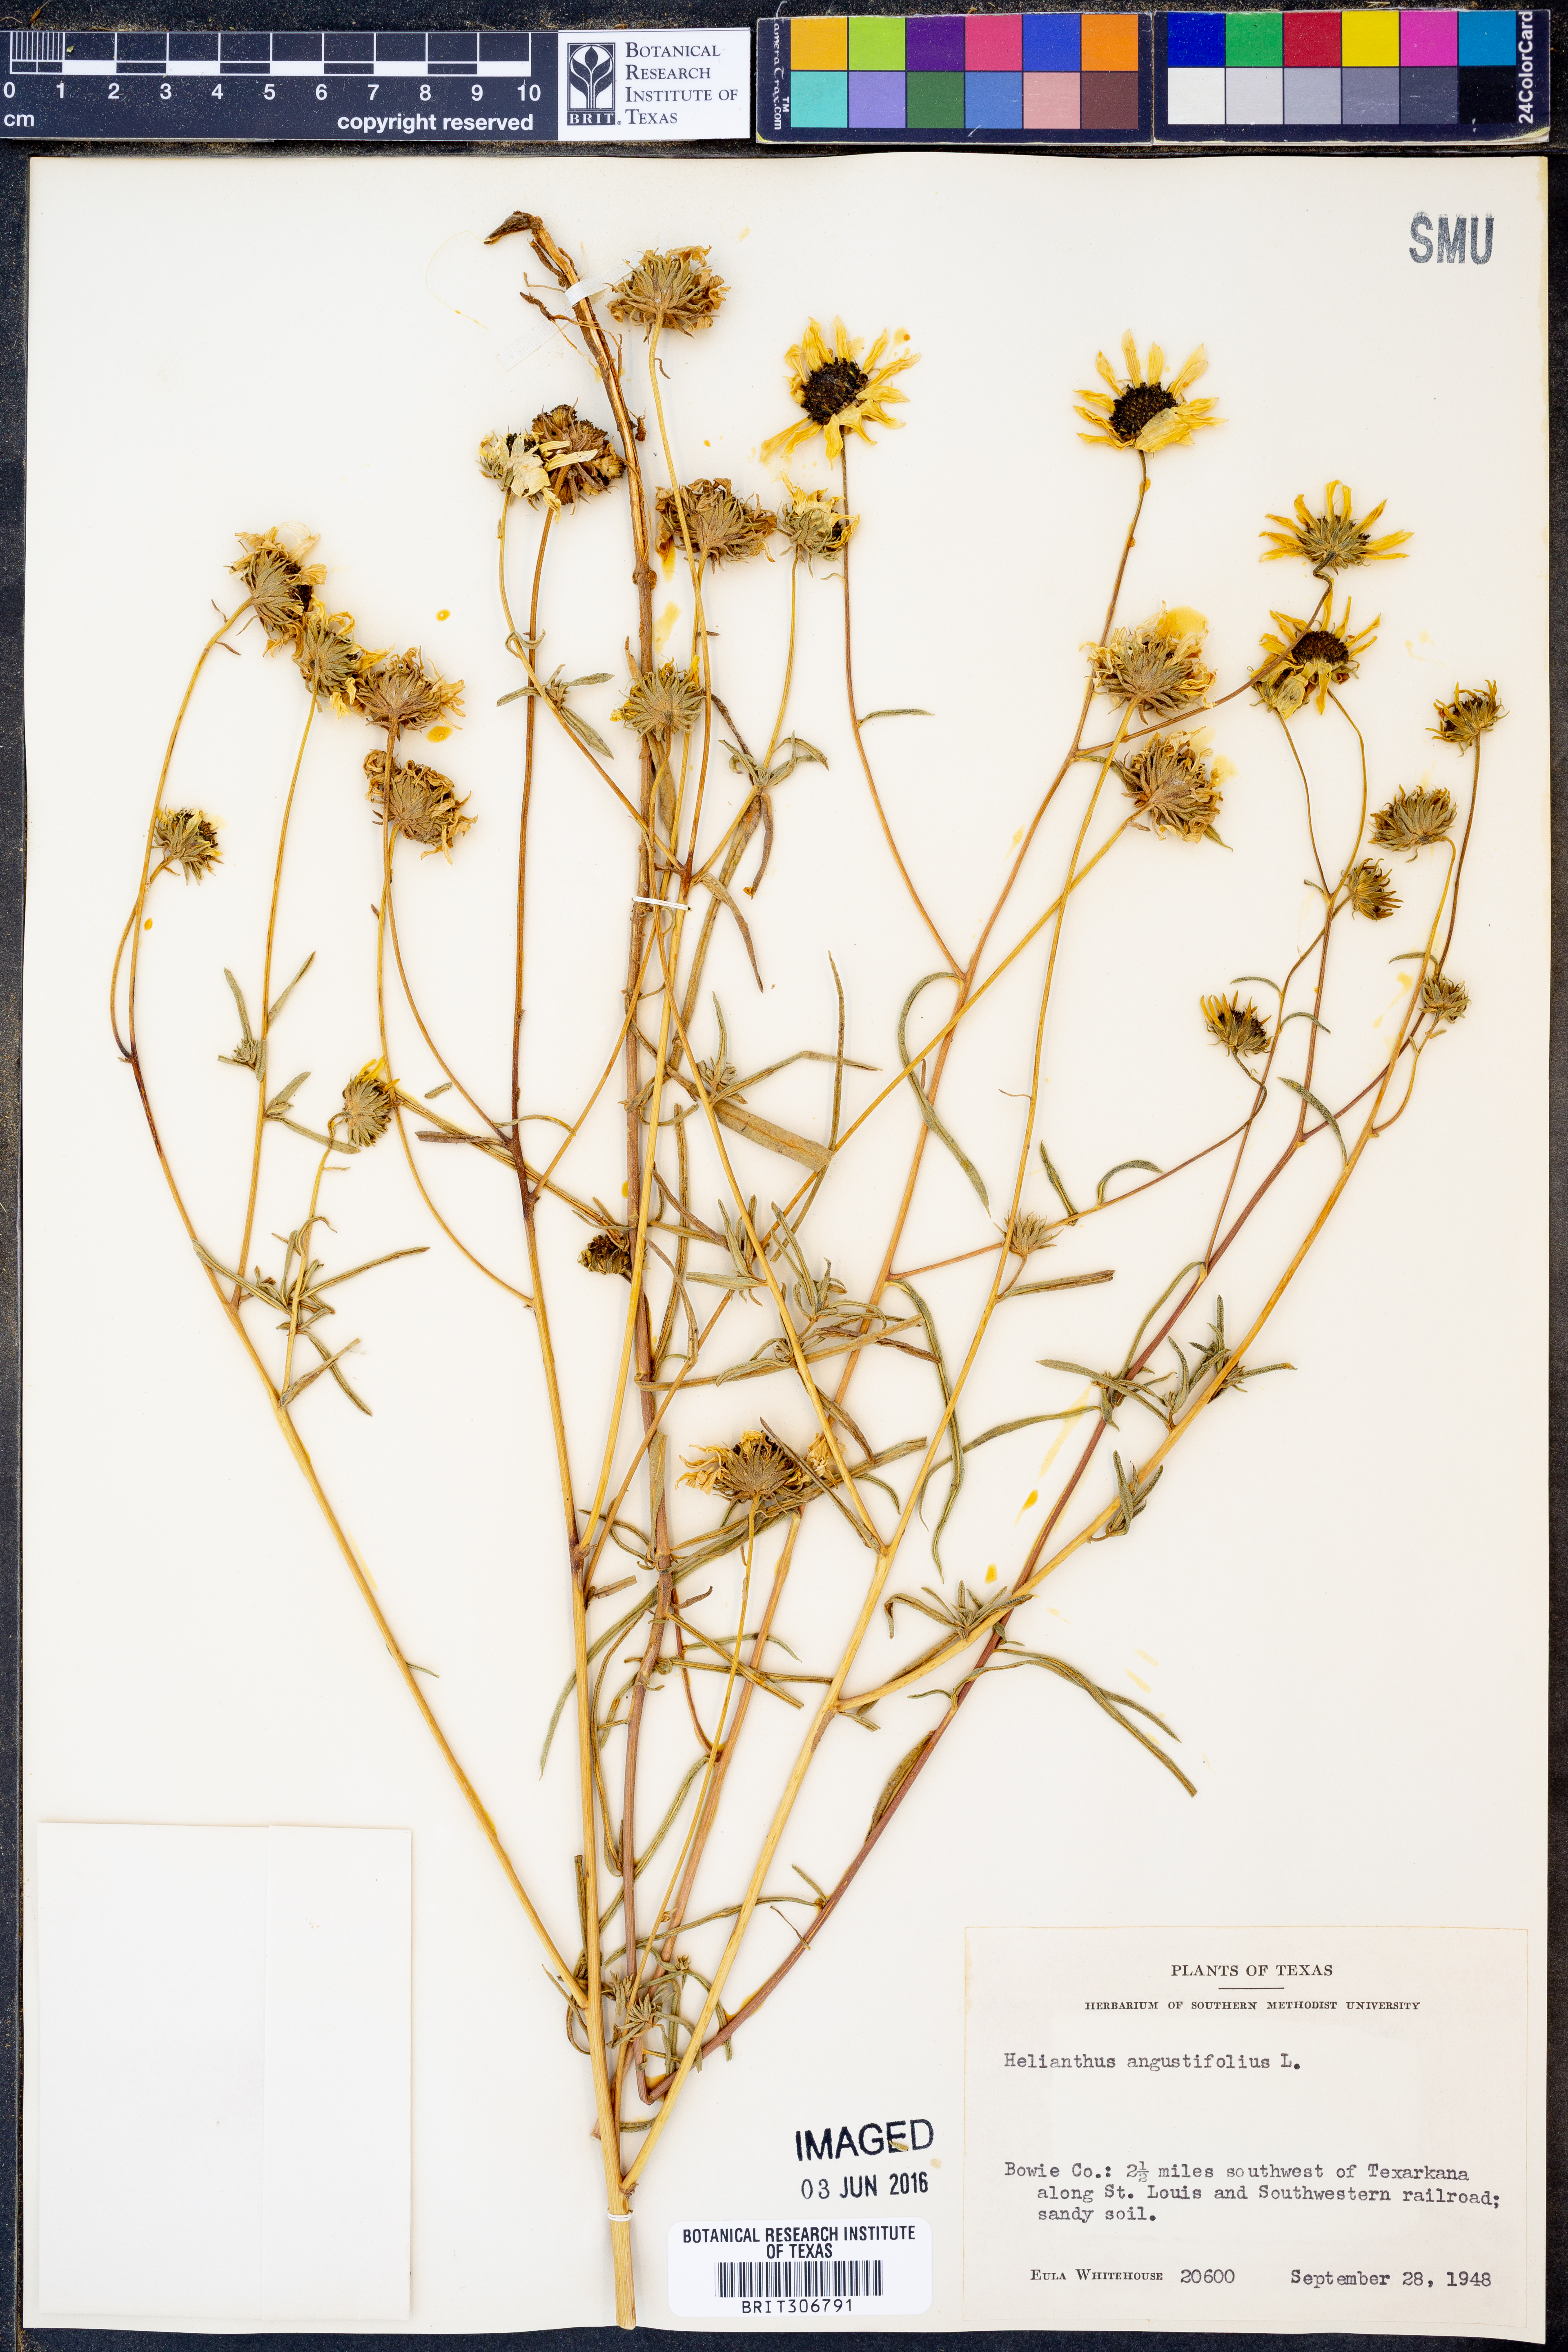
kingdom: Plantae
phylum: Tracheophyta
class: Magnoliopsida
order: Asterales
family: Asteraceae
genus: Helianthus
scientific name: Helianthus angustifolius
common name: Swamp sunflower
